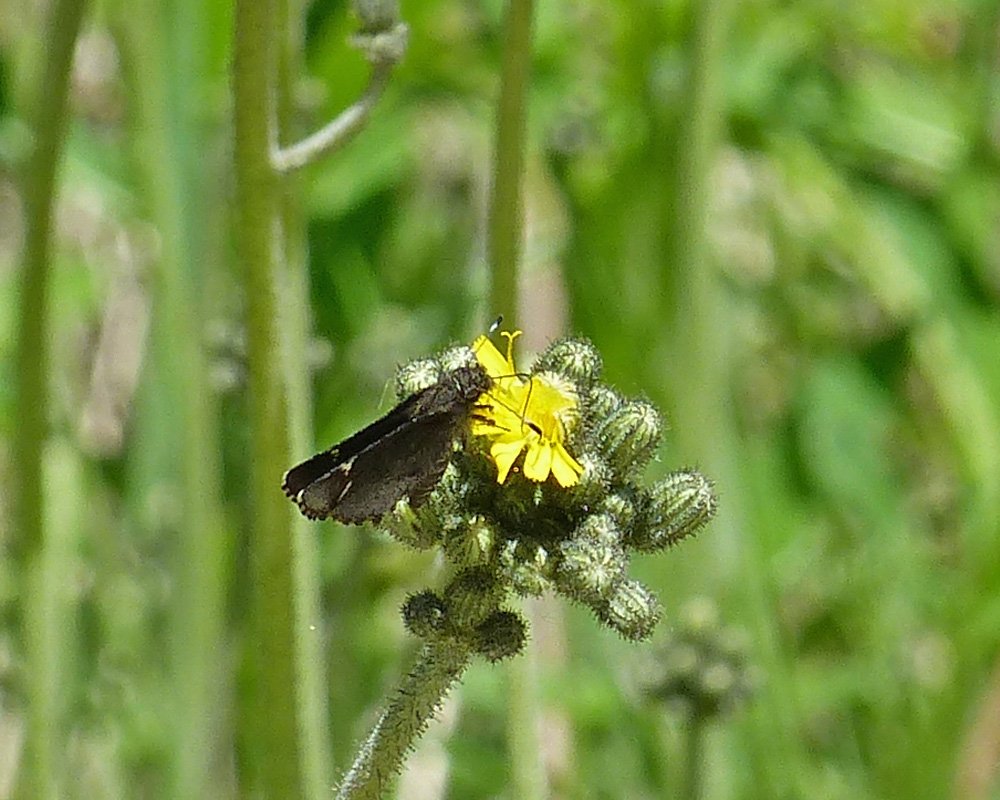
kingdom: Animalia
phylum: Arthropoda
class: Insecta
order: Lepidoptera
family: Hesperiidae
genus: Mastor
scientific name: Mastor vialis
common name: Common Roadside-Skipper
